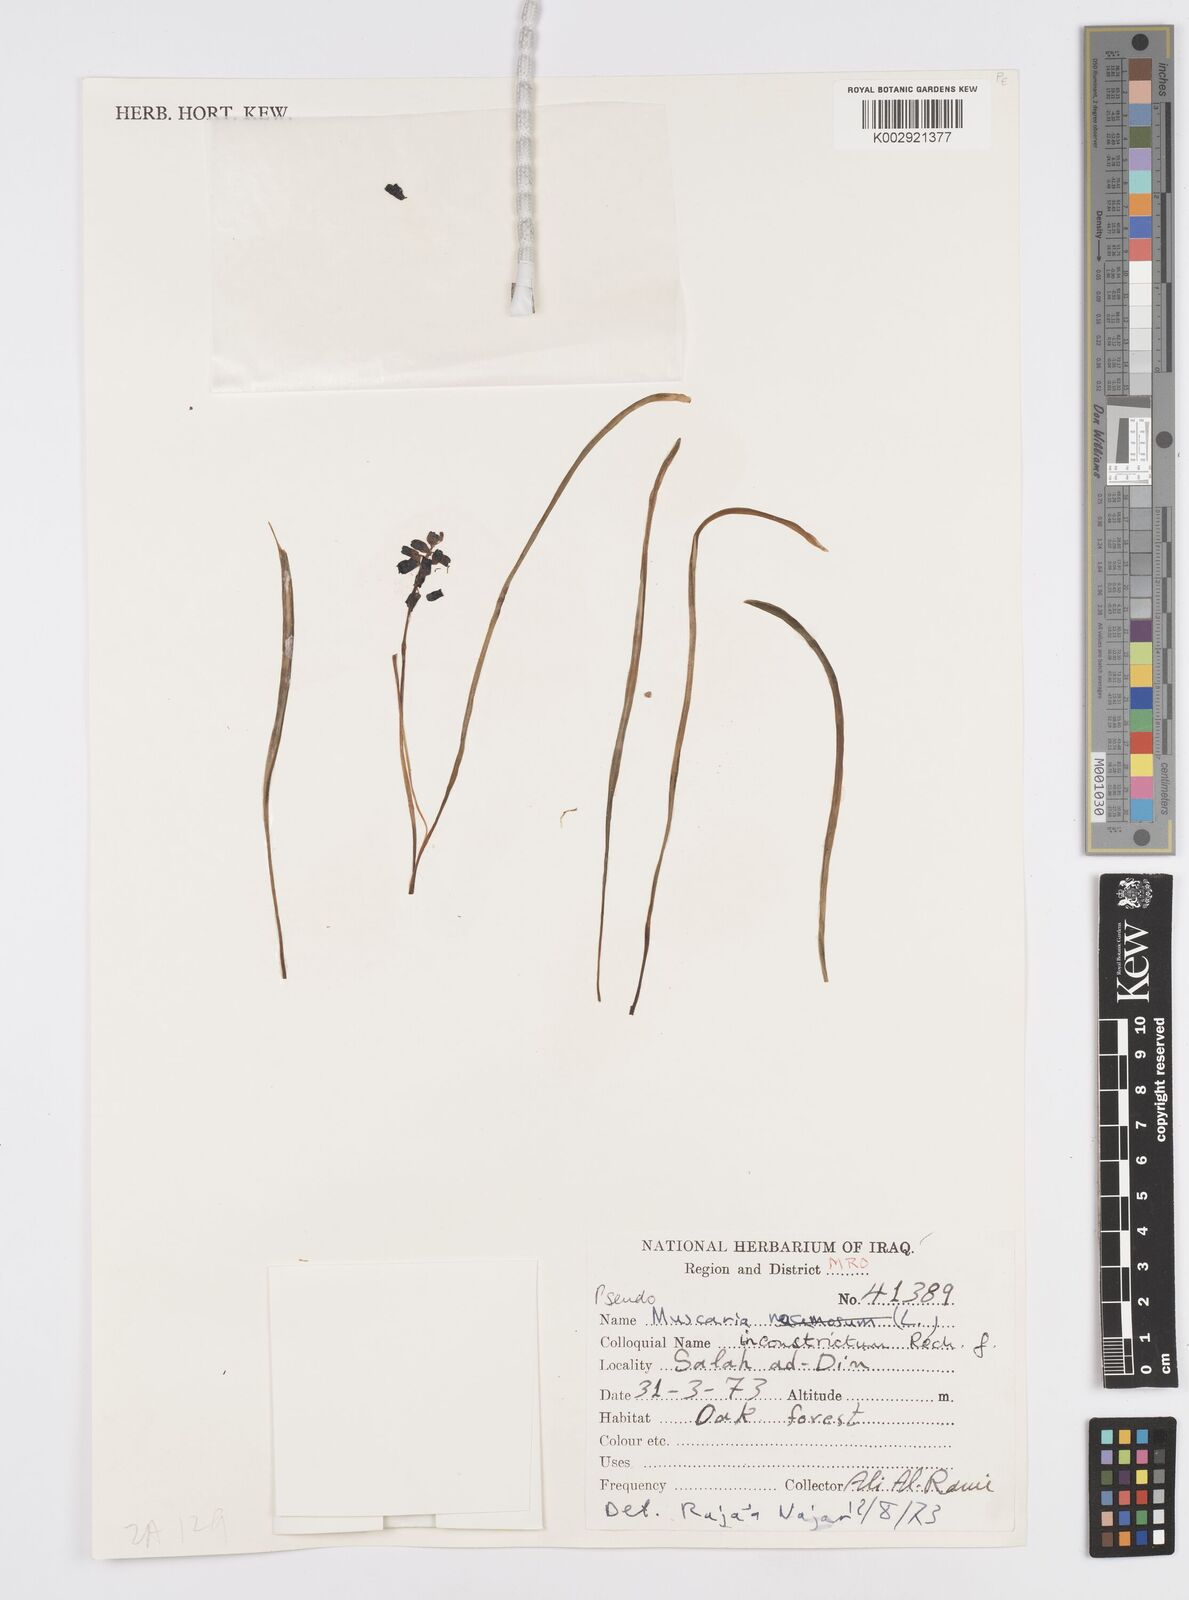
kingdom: Plantae
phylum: Tracheophyta
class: Liliopsida
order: Asparagales
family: Asparagaceae
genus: Muscari
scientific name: Muscari inconstrictum
